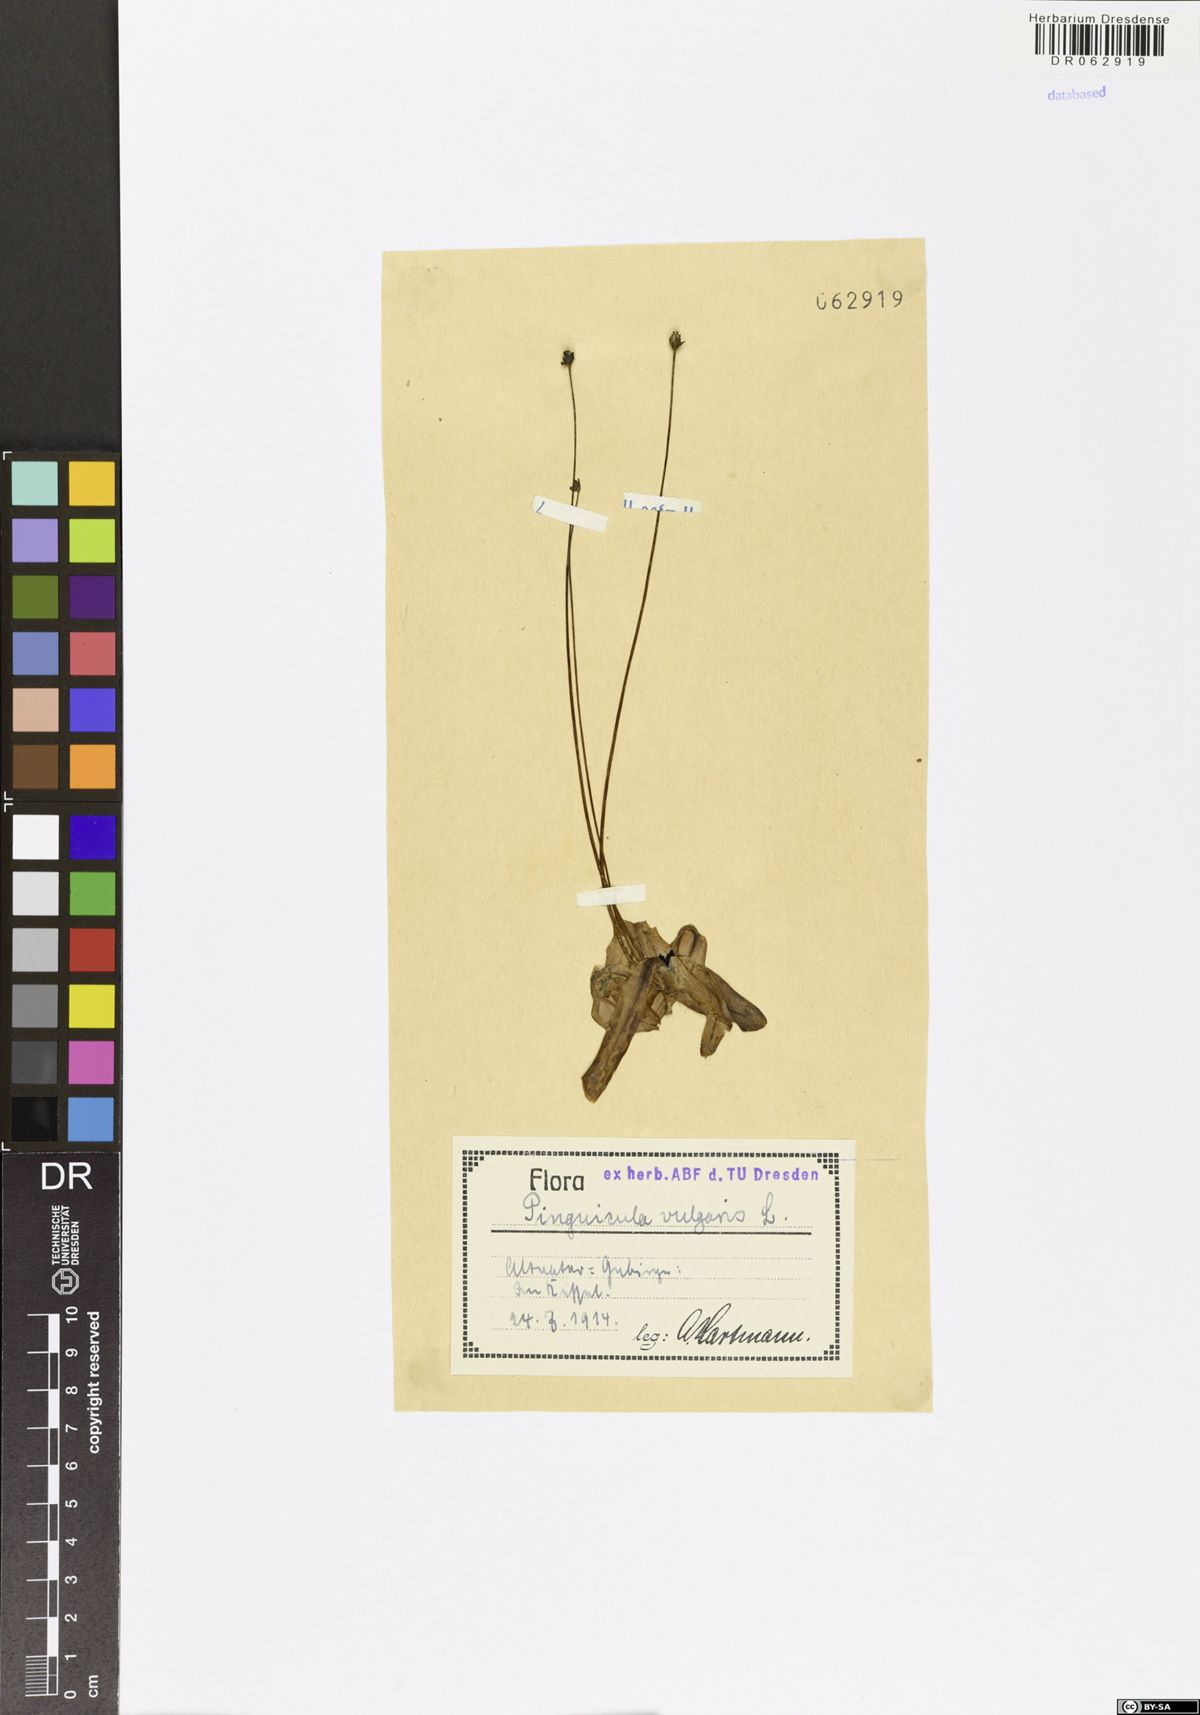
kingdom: Plantae
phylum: Tracheophyta
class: Magnoliopsida
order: Lamiales
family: Lentibulariaceae
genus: Pinguicula
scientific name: Pinguicula vulgaris
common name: Common butterwort
